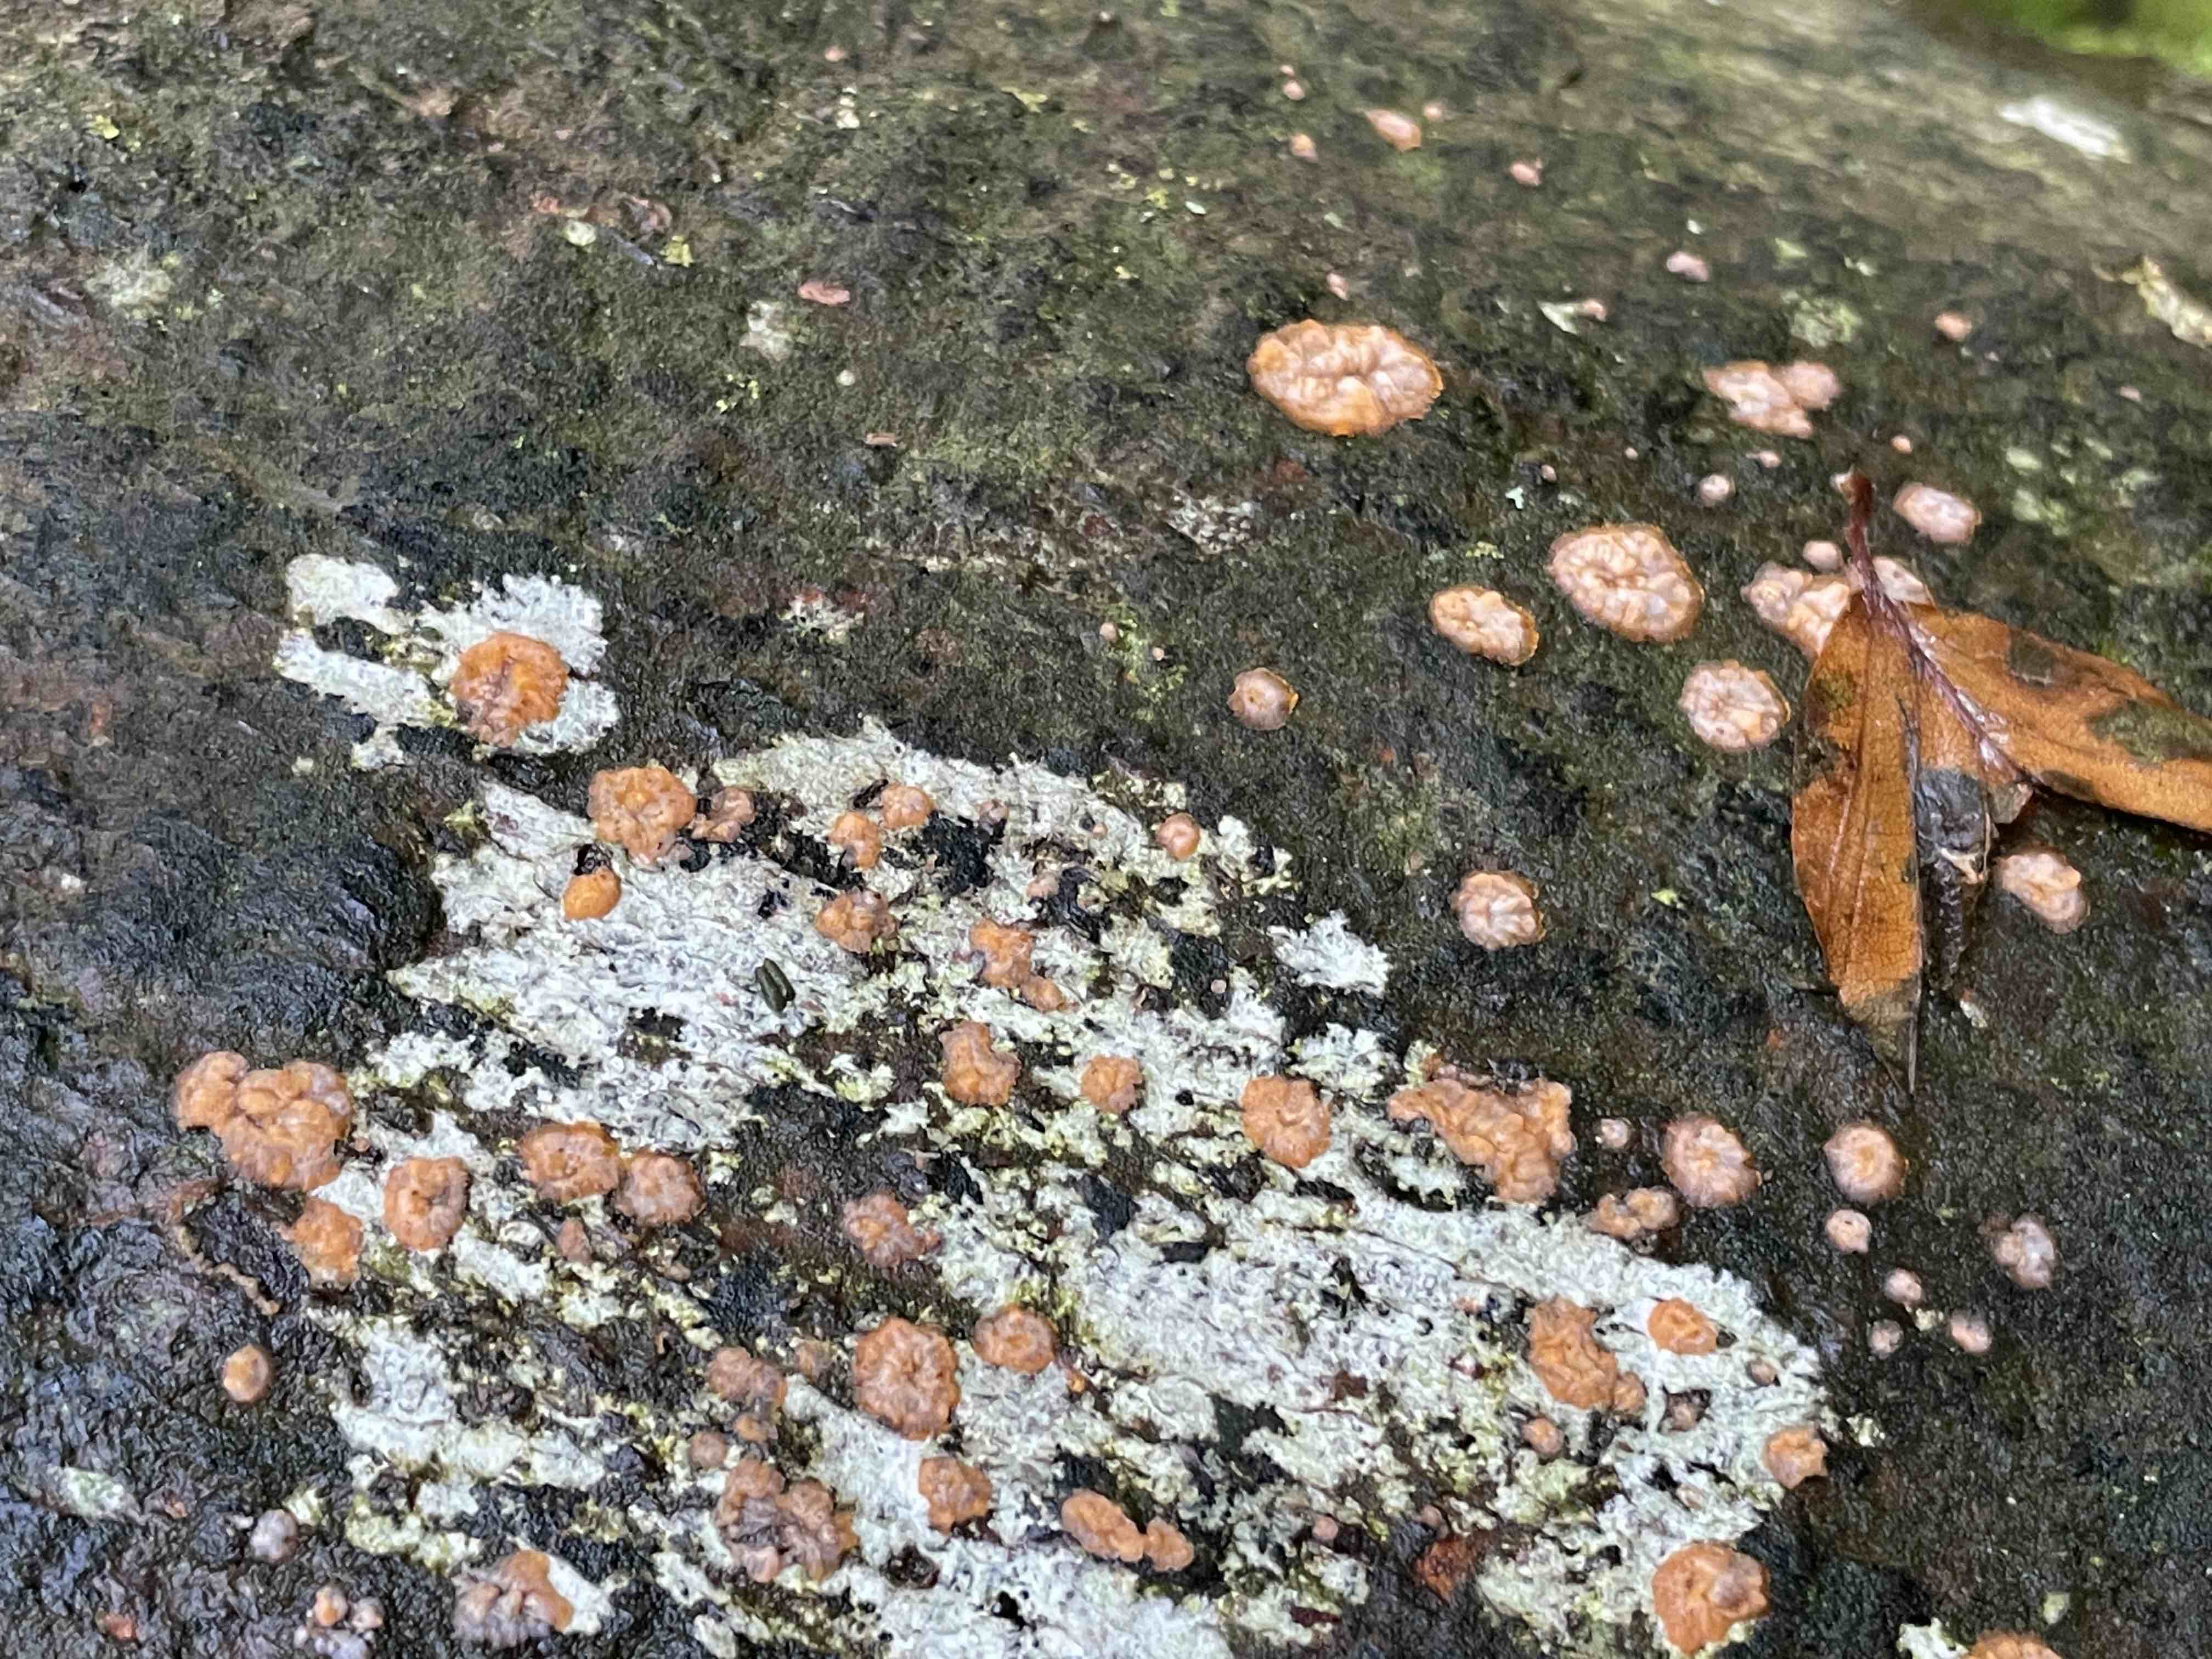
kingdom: Fungi
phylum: Basidiomycota
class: Agaricomycetes
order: Polyporales
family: Meruliaceae
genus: Phlebia
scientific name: Phlebia radiata
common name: stråle-åresvamp
